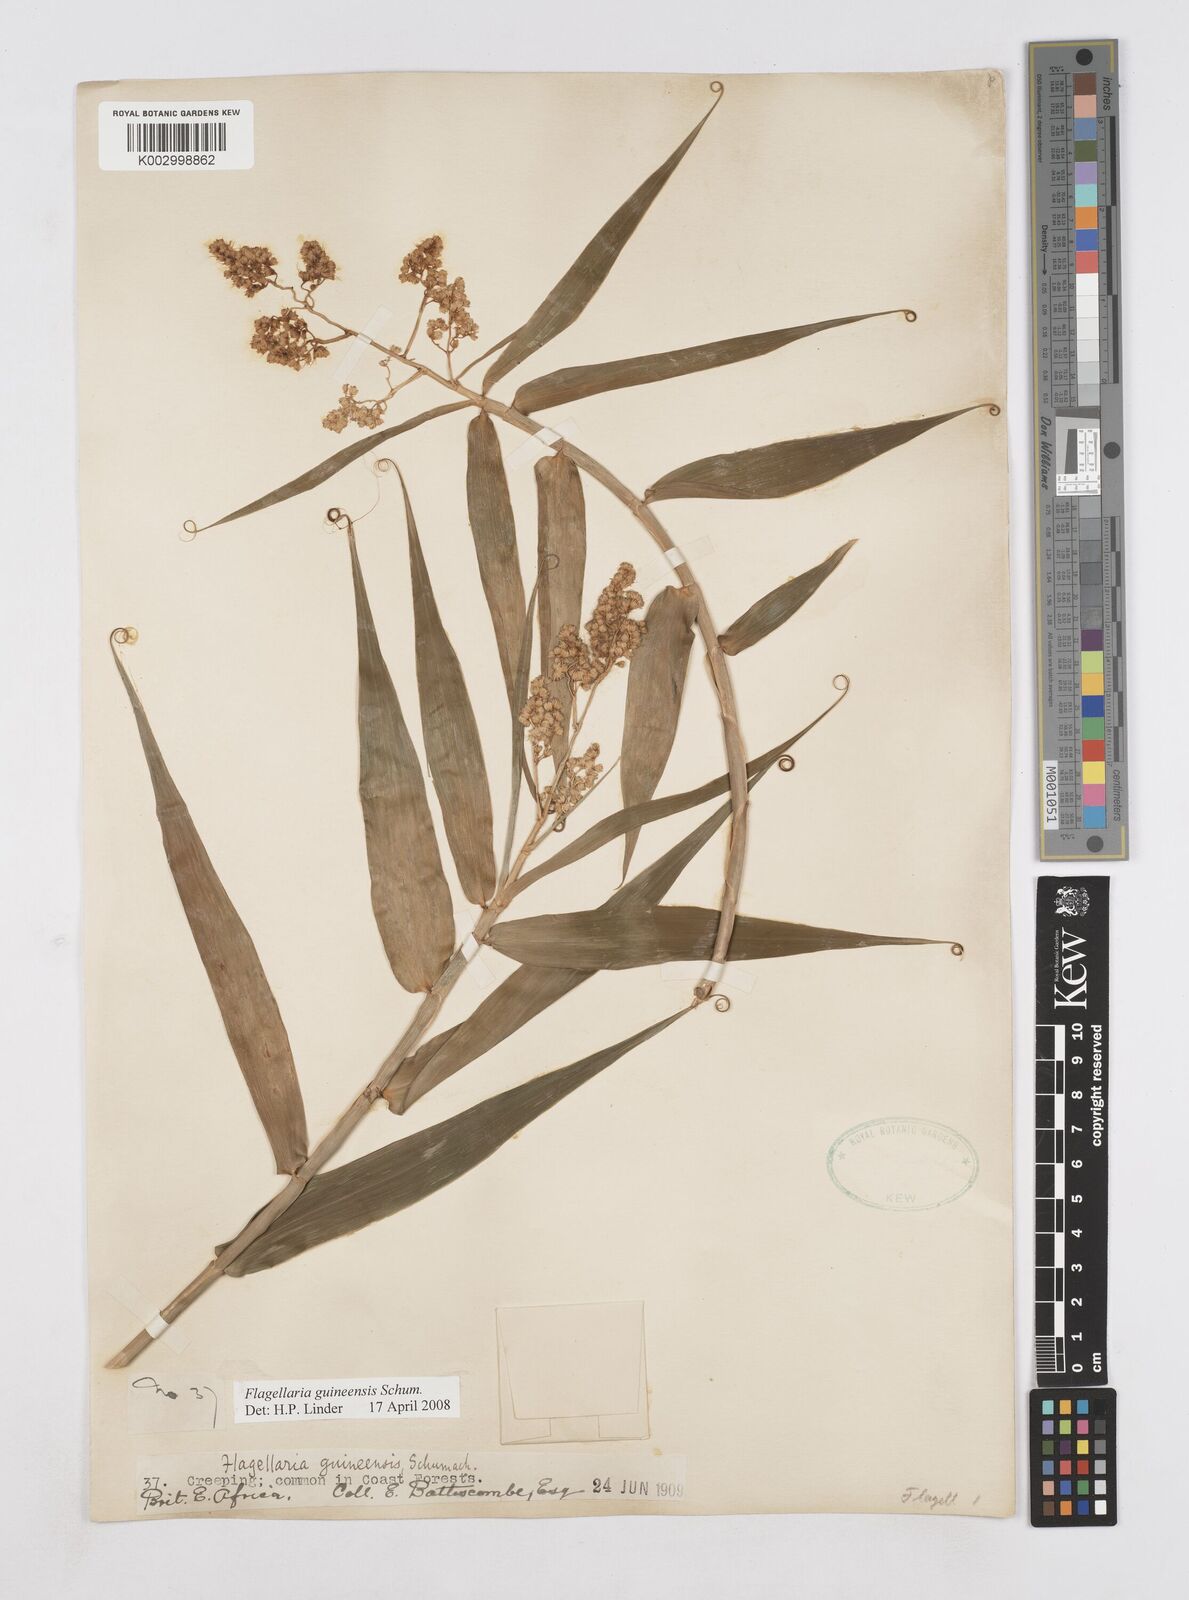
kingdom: Plantae
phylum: Tracheophyta
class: Liliopsida
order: Poales
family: Flagellariaceae
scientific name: Flagellariaceae
